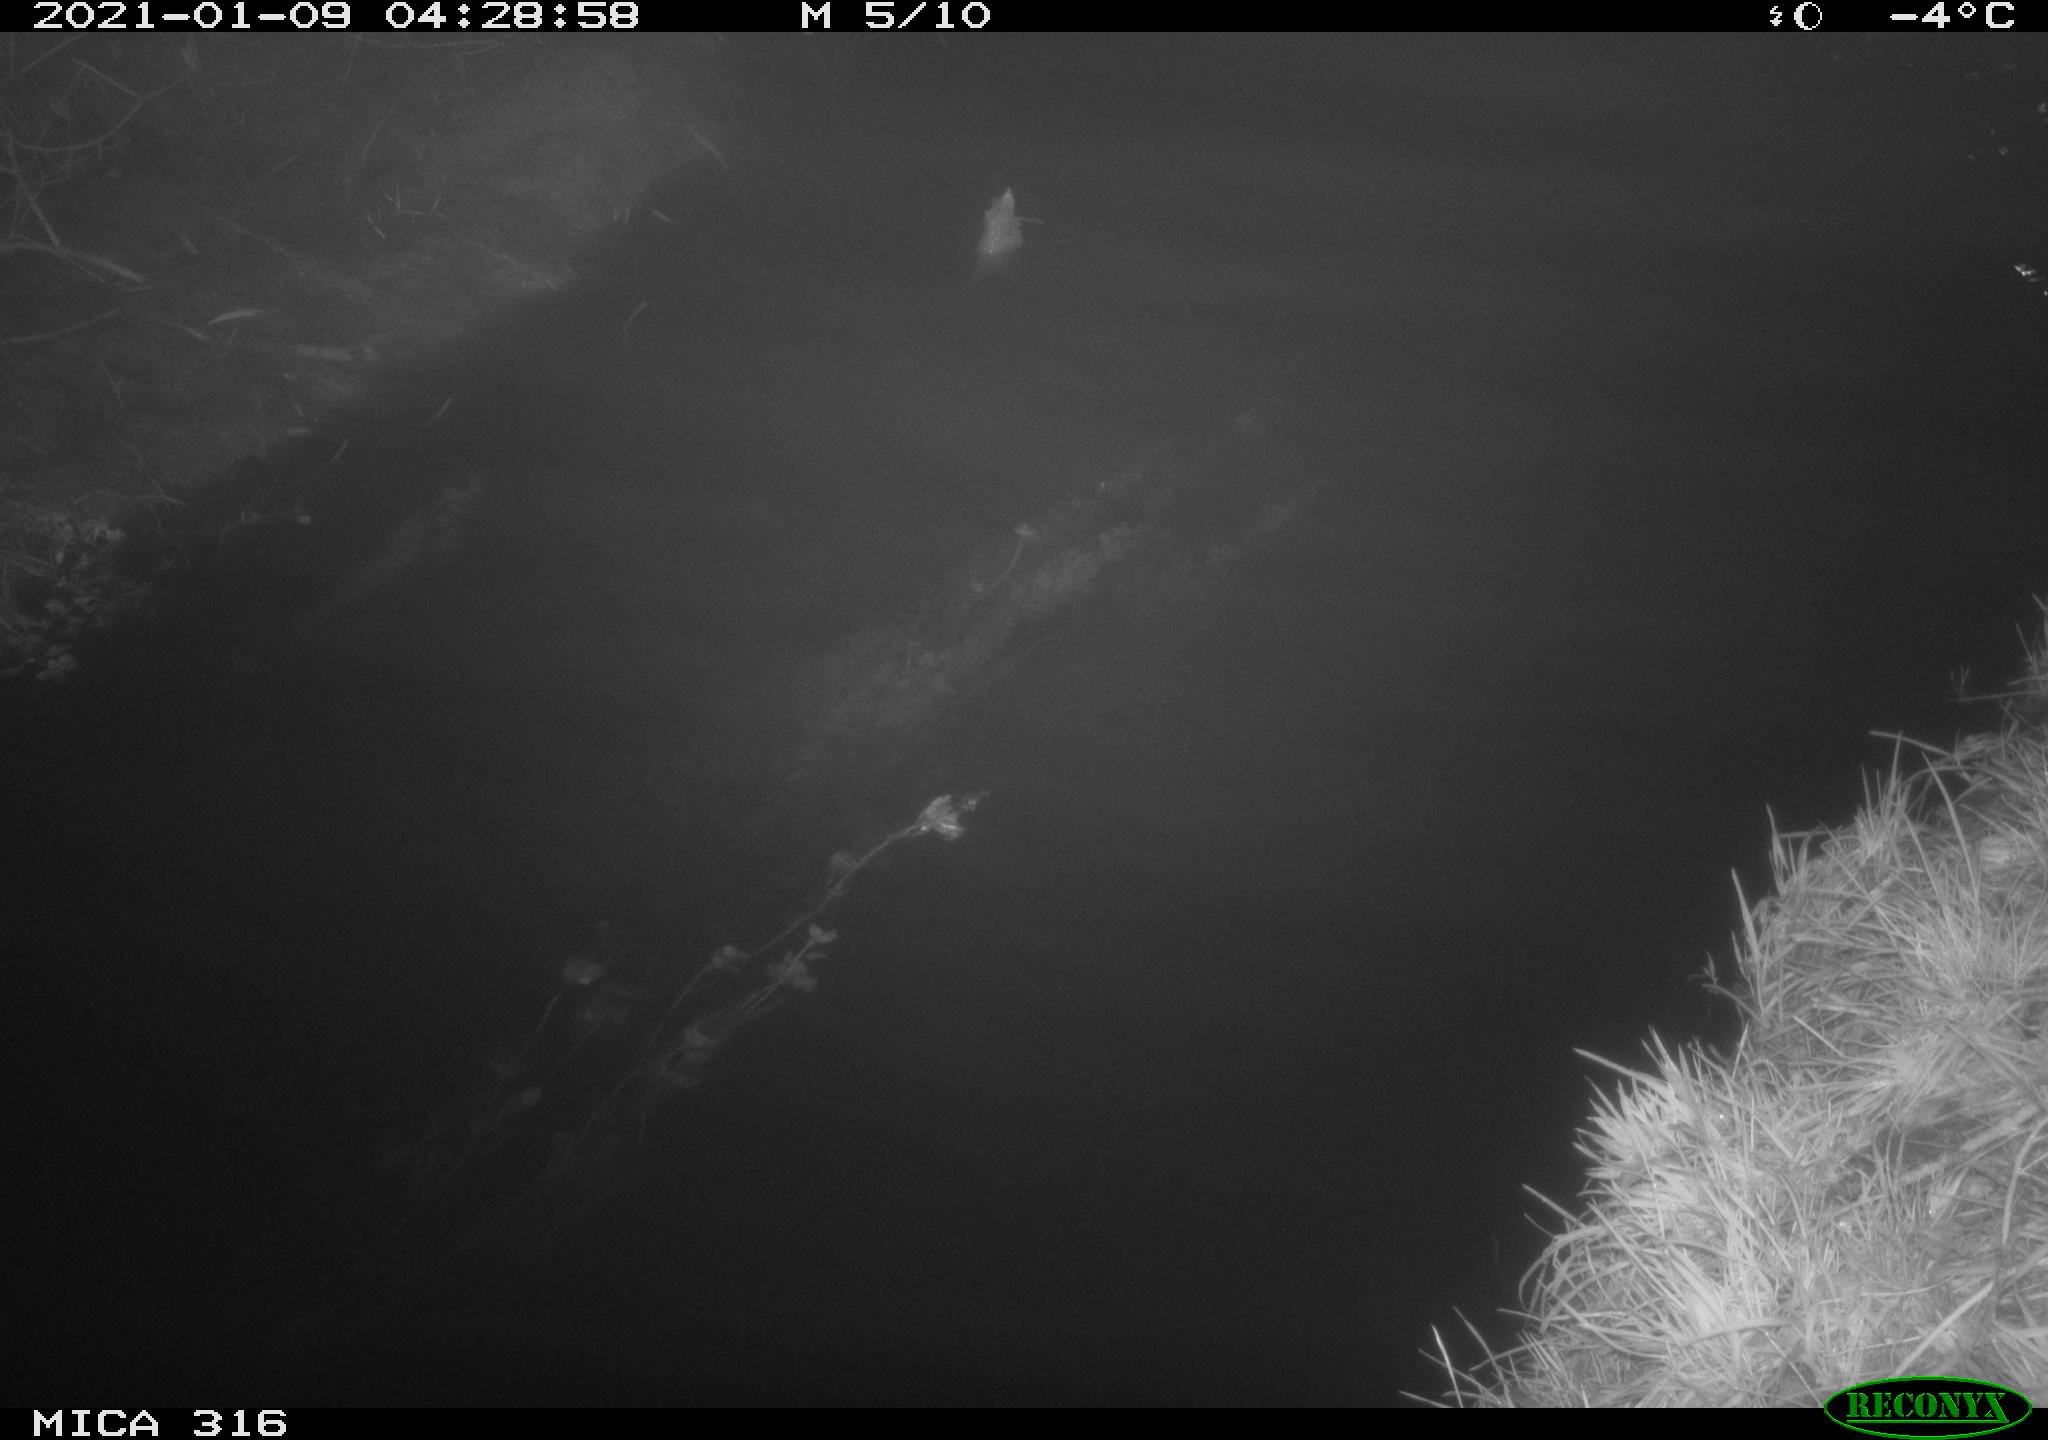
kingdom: Animalia
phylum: Chordata
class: Mammalia
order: Rodentia
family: Muridae
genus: Rattus
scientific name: Rattus norvegicus
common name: Brown rat
